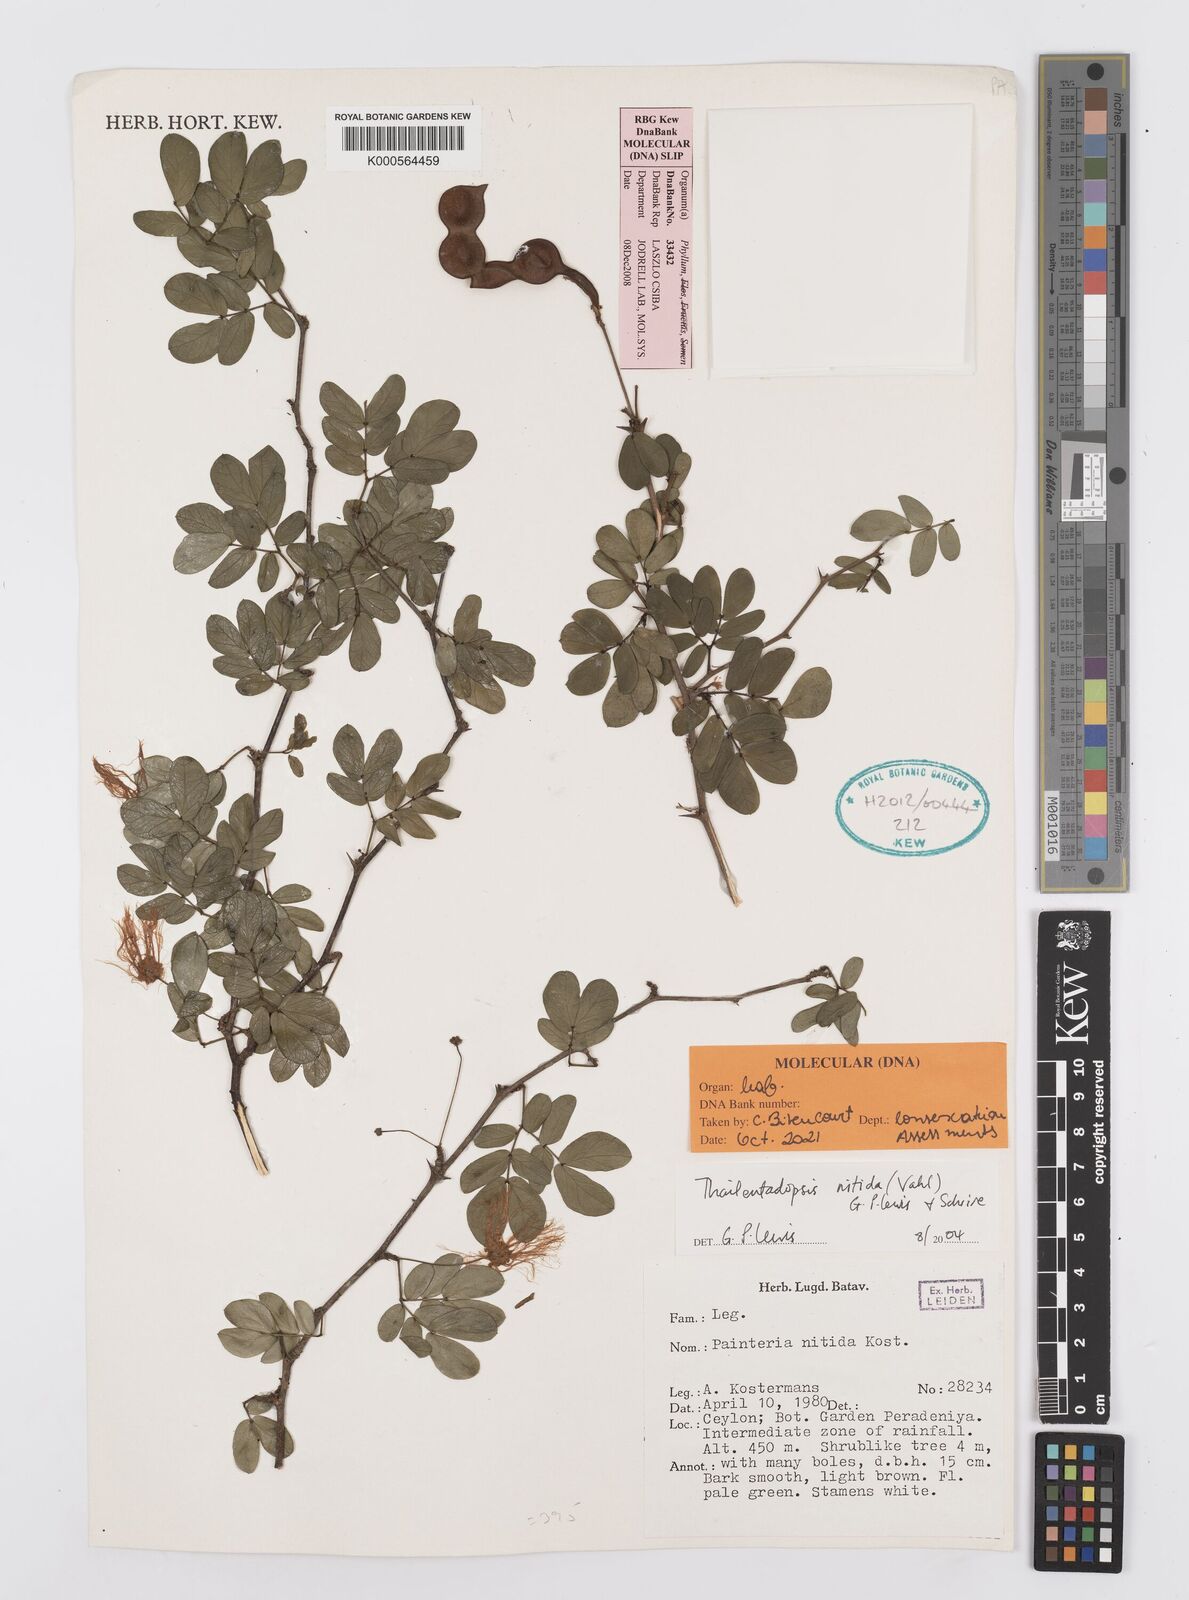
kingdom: Plantae
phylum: Tracheophyta
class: Magnoliopsida
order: Fabales
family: Fabaceae
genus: Thailentadopsis
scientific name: Thailentadopsis nitida
